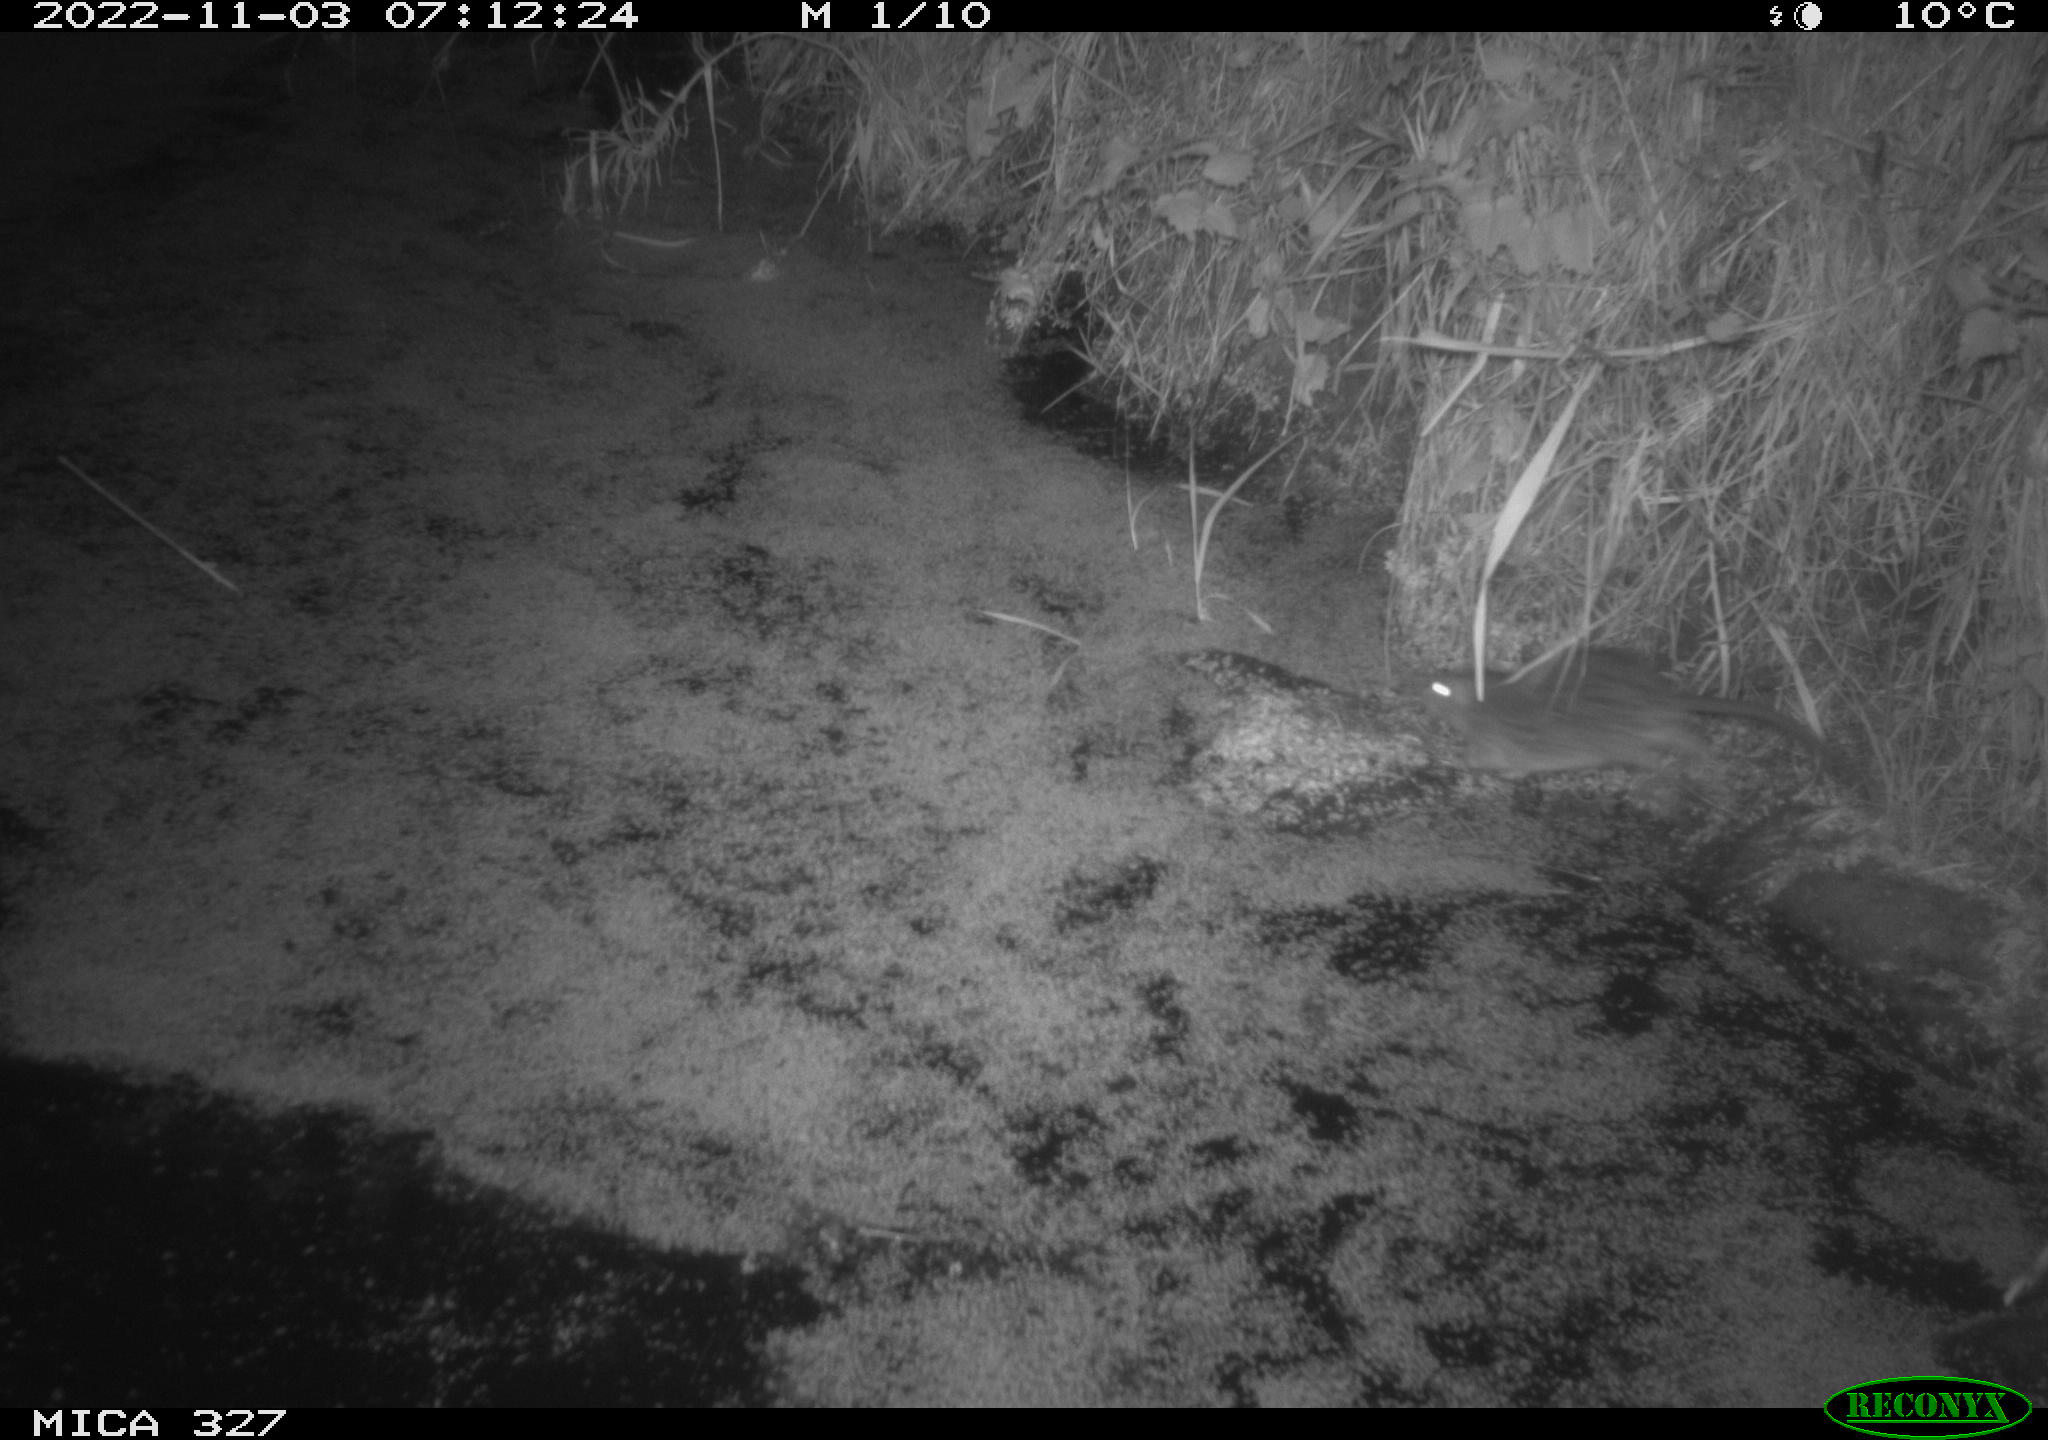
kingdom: Animalia
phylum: Chordata
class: Mammalia
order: Rodentia
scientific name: Rodentia
